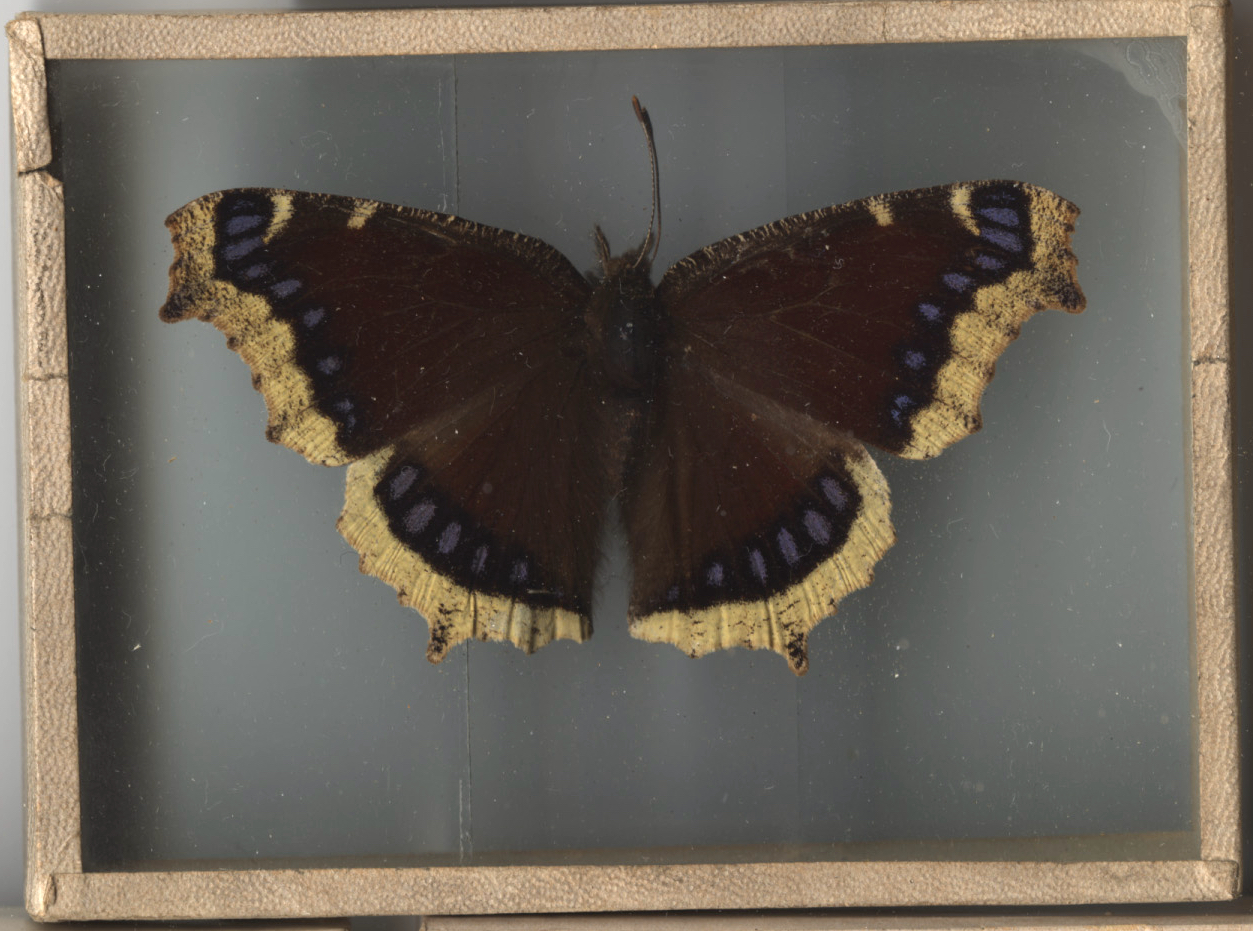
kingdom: Animalia
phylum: Arthropoda
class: Insecta
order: Lepidoptera
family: Nymphalidae
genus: Nymphalis
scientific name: Nymphalis antiopa
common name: Mourning Cloak
